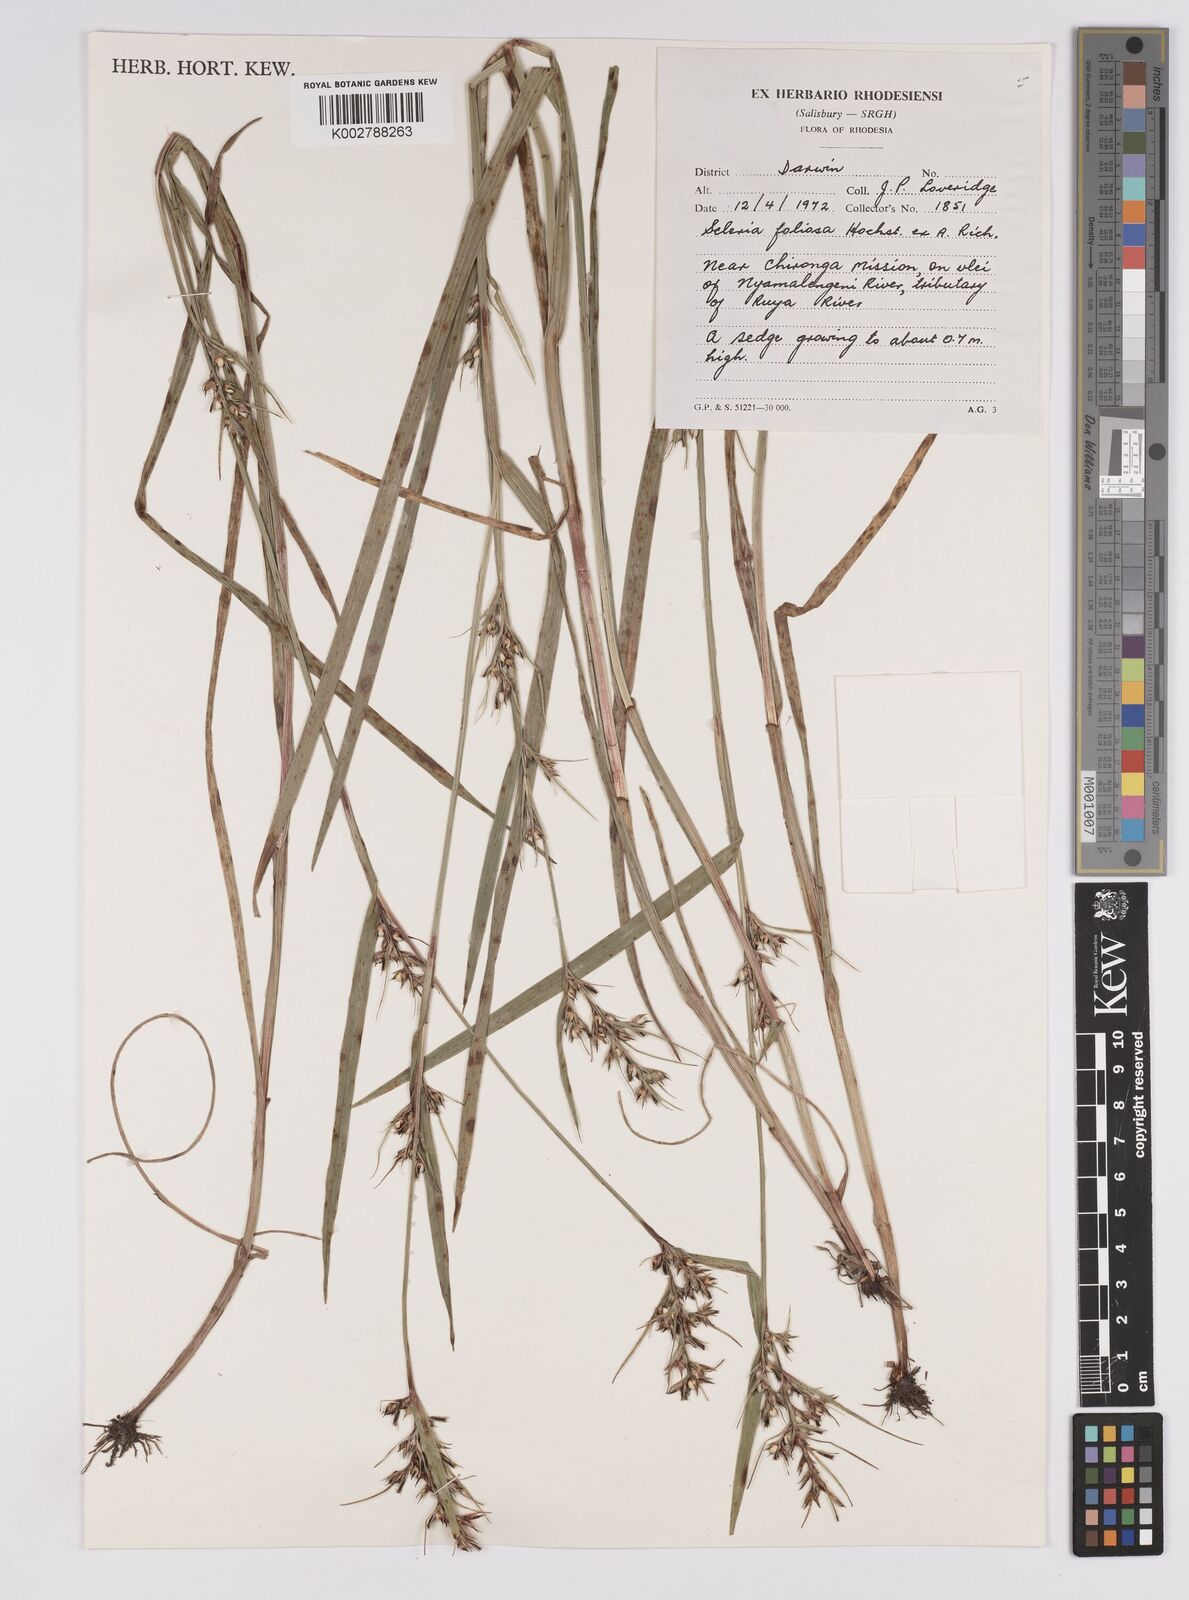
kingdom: Plantae
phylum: Tracheophyta
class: Liliopsida
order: Poales
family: Cyperaceae
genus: Scleria
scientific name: Scleria foliosa
